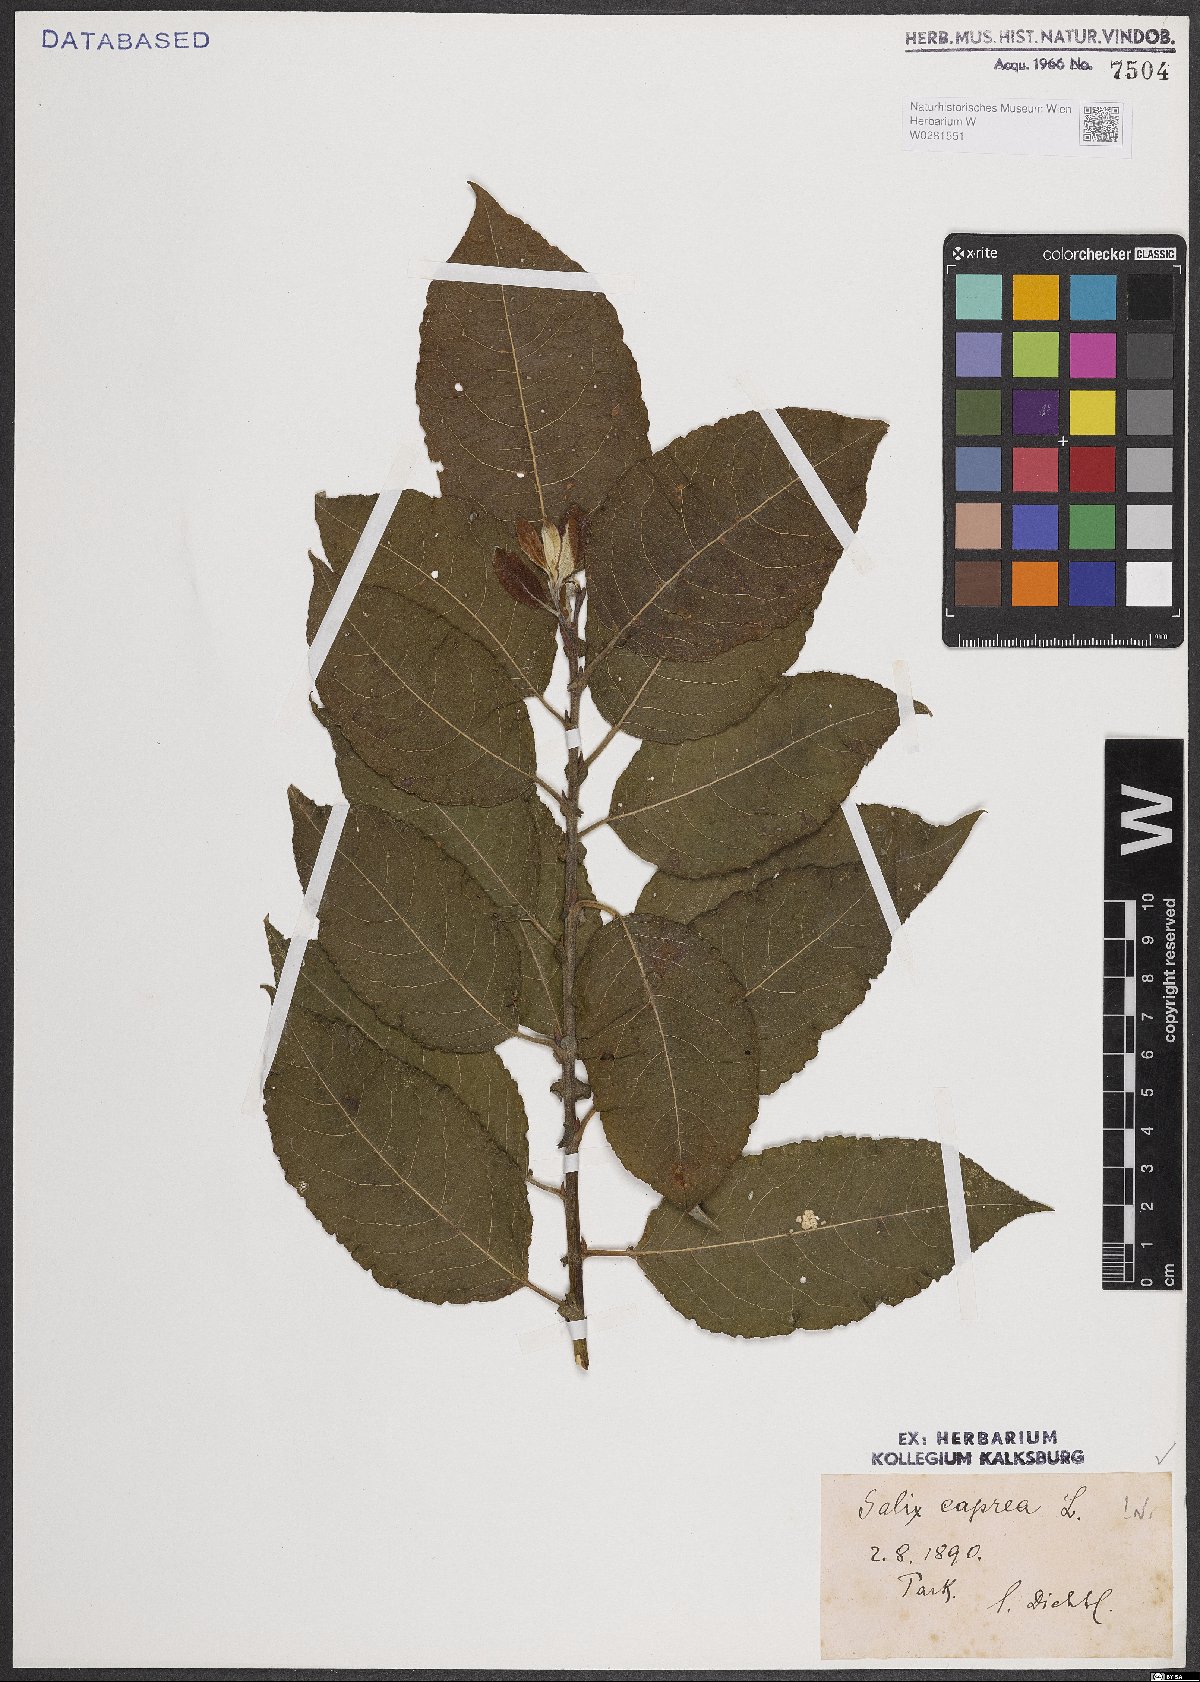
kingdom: Plantae
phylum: Tracheophyta
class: Magnoliopsida
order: Malpighiales
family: Salicaceae
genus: Salix
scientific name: Salix caprea
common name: Goat willow
